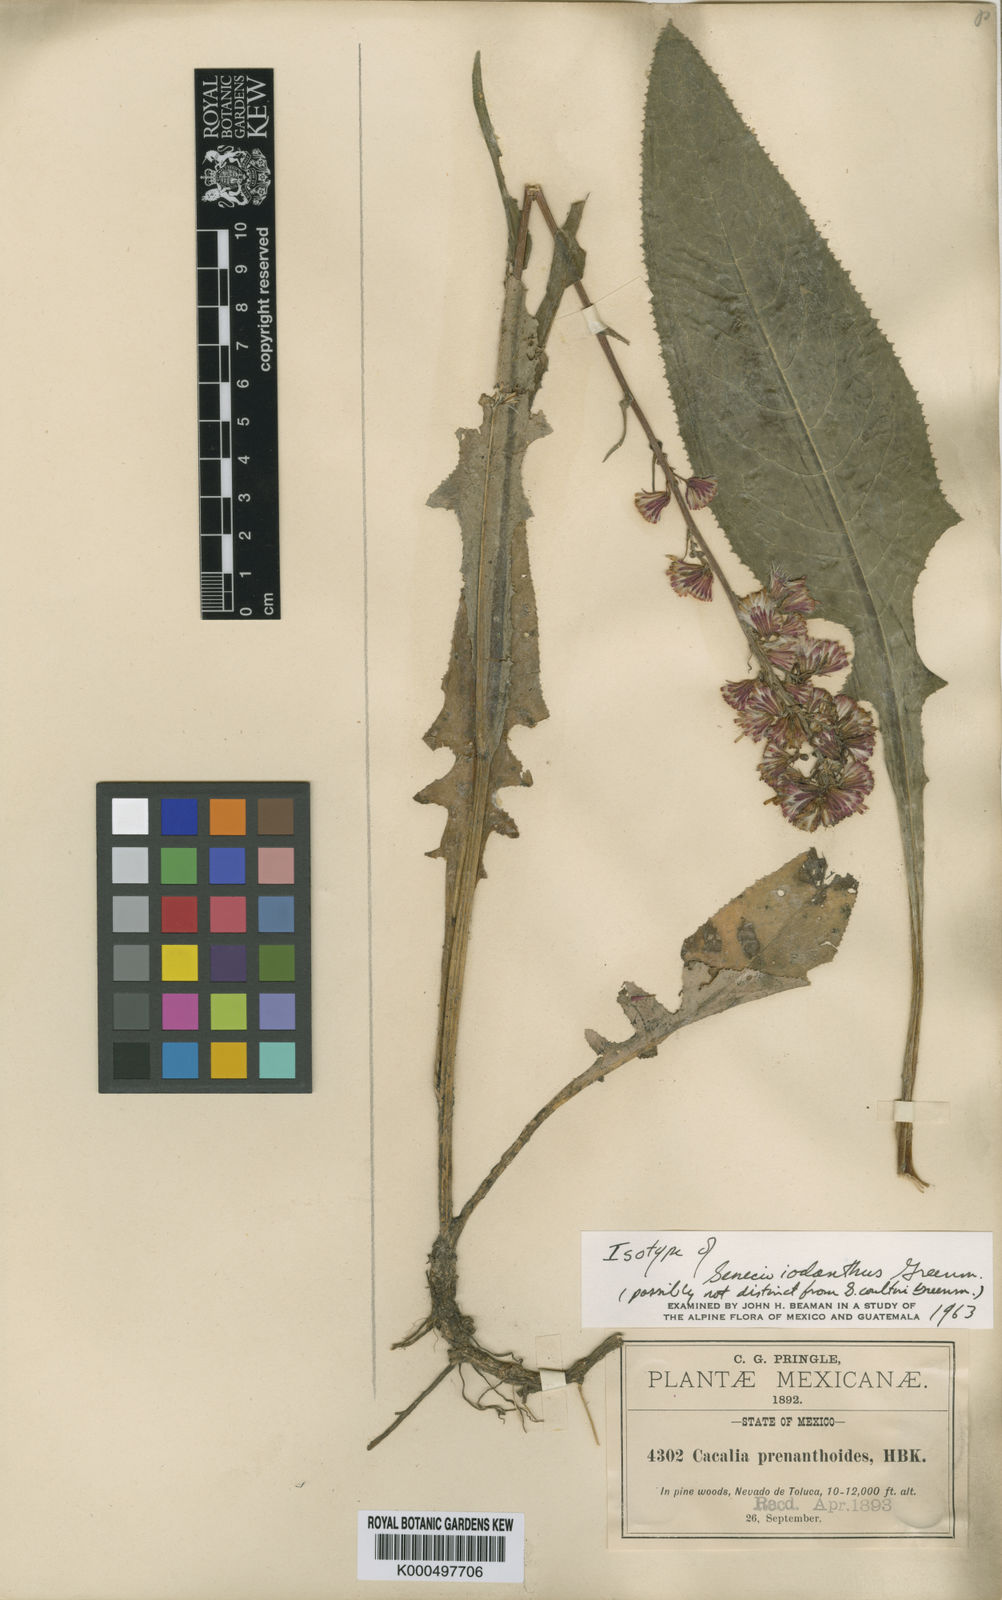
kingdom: Plantae
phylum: Tracheophyta
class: Magnoliopsida
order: Asterales
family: Asteraceae
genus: Senecio
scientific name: Senecio iodanthus
